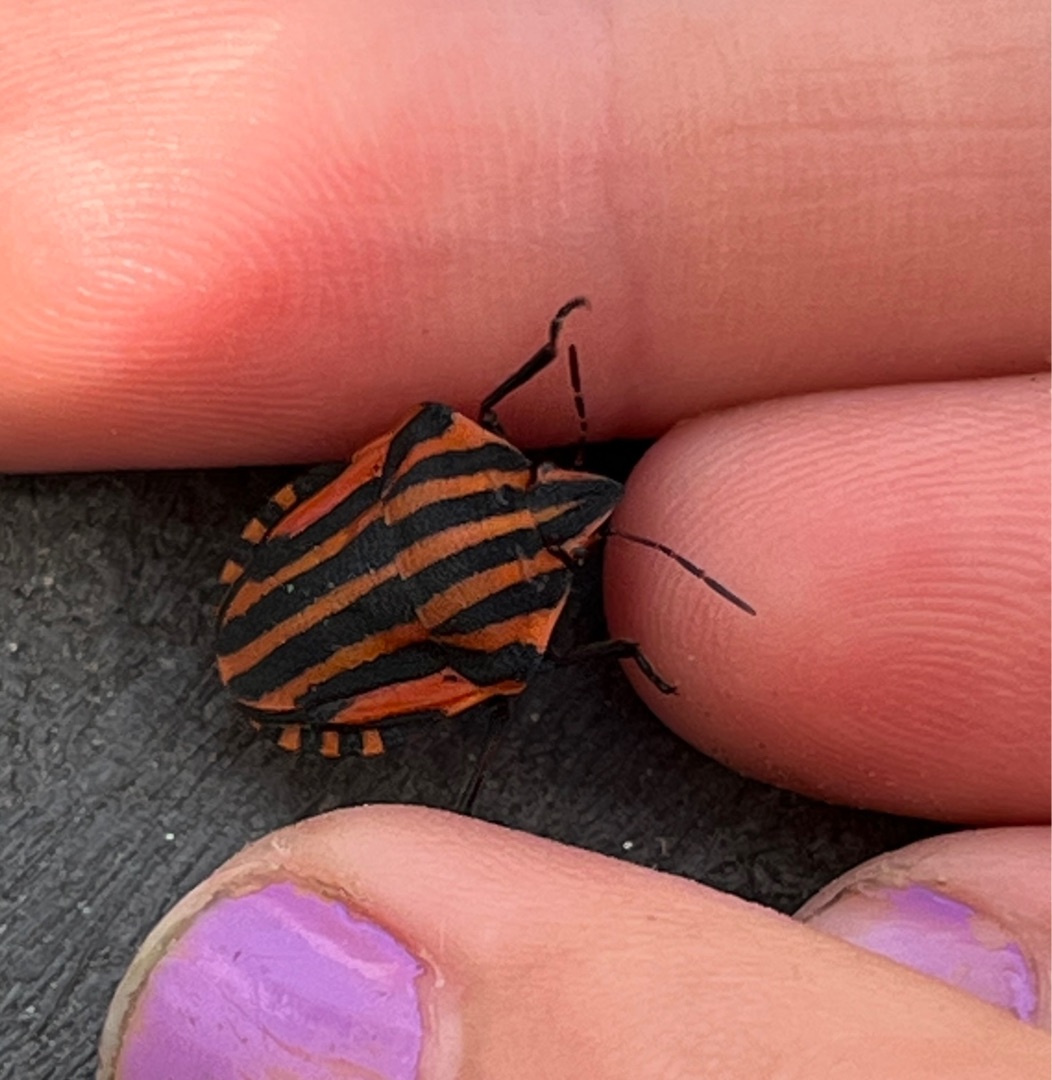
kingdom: Animalia
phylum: Arthropoda
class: Insecta
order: Hemiptera
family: Pentatomidae
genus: Graphosoma
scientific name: Graphosoma italicum
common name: Stribetæge
